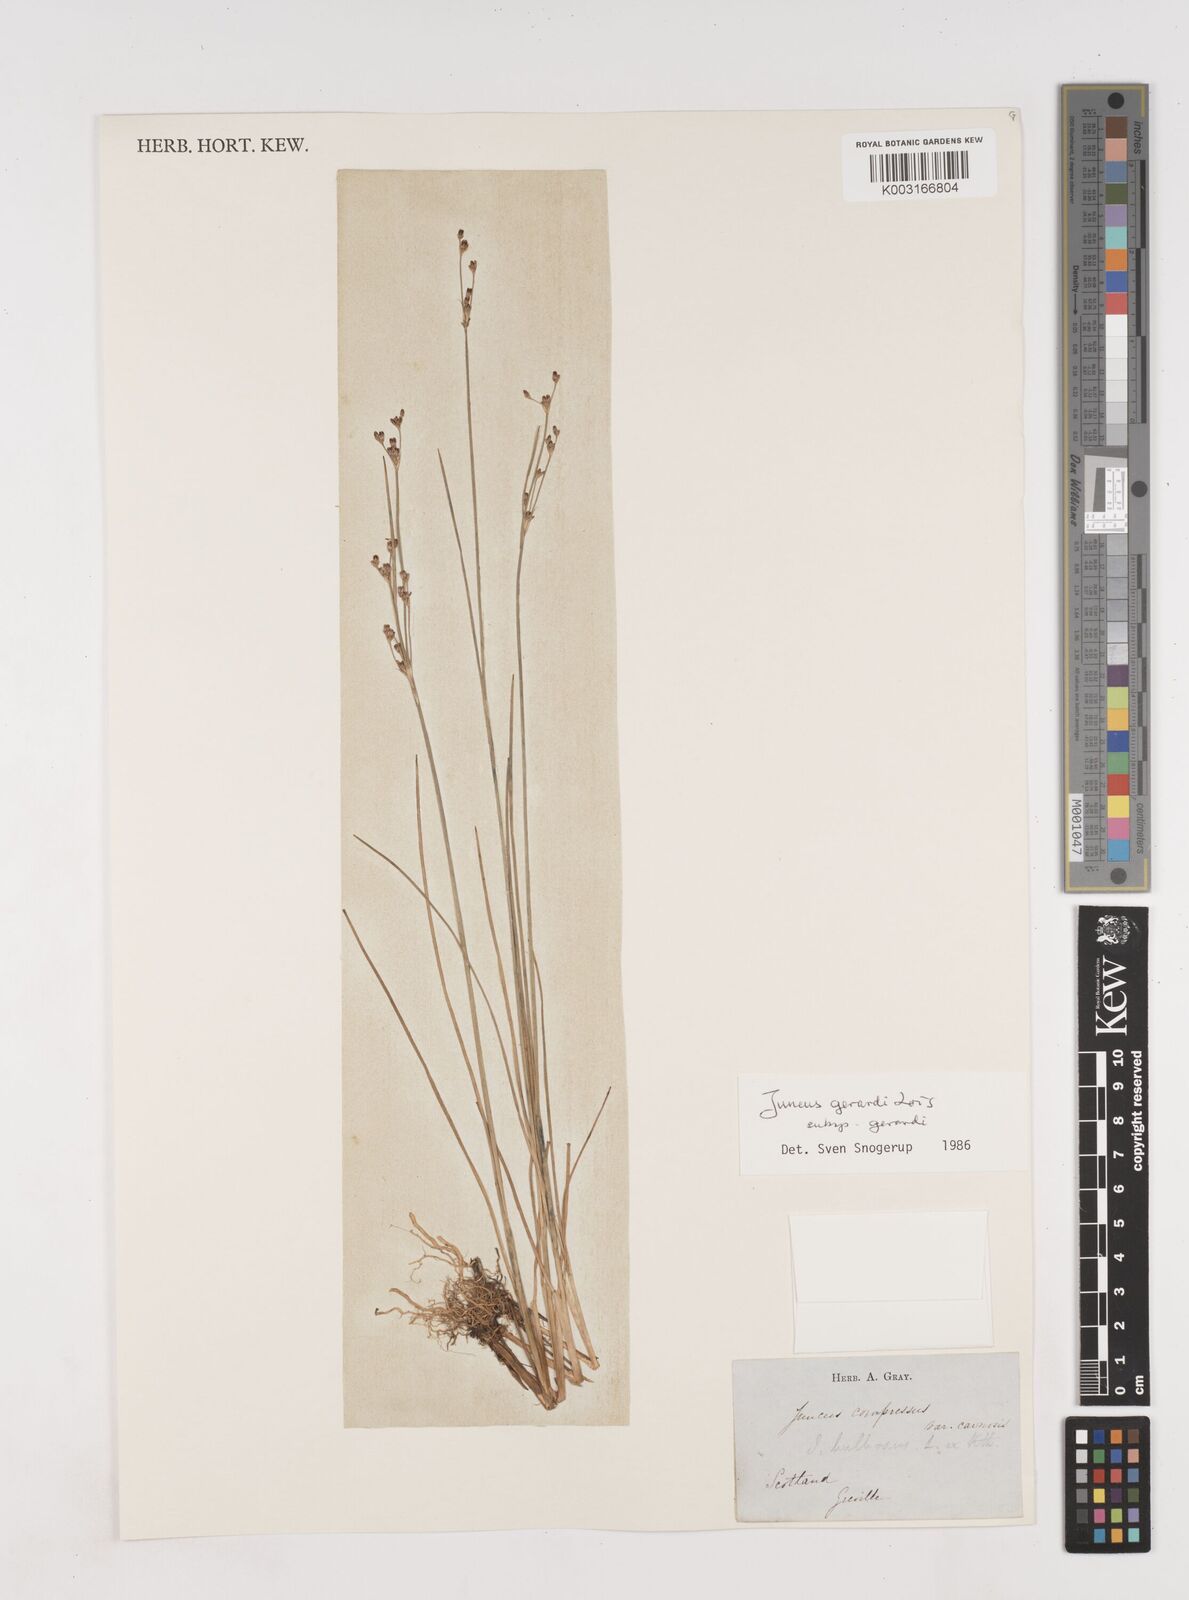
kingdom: Plantae
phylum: Tracheophyta
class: Liliopsida
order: Poales
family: Juncaceae
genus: Juncus
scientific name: Juncus compressus
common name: Round-fruited rush
